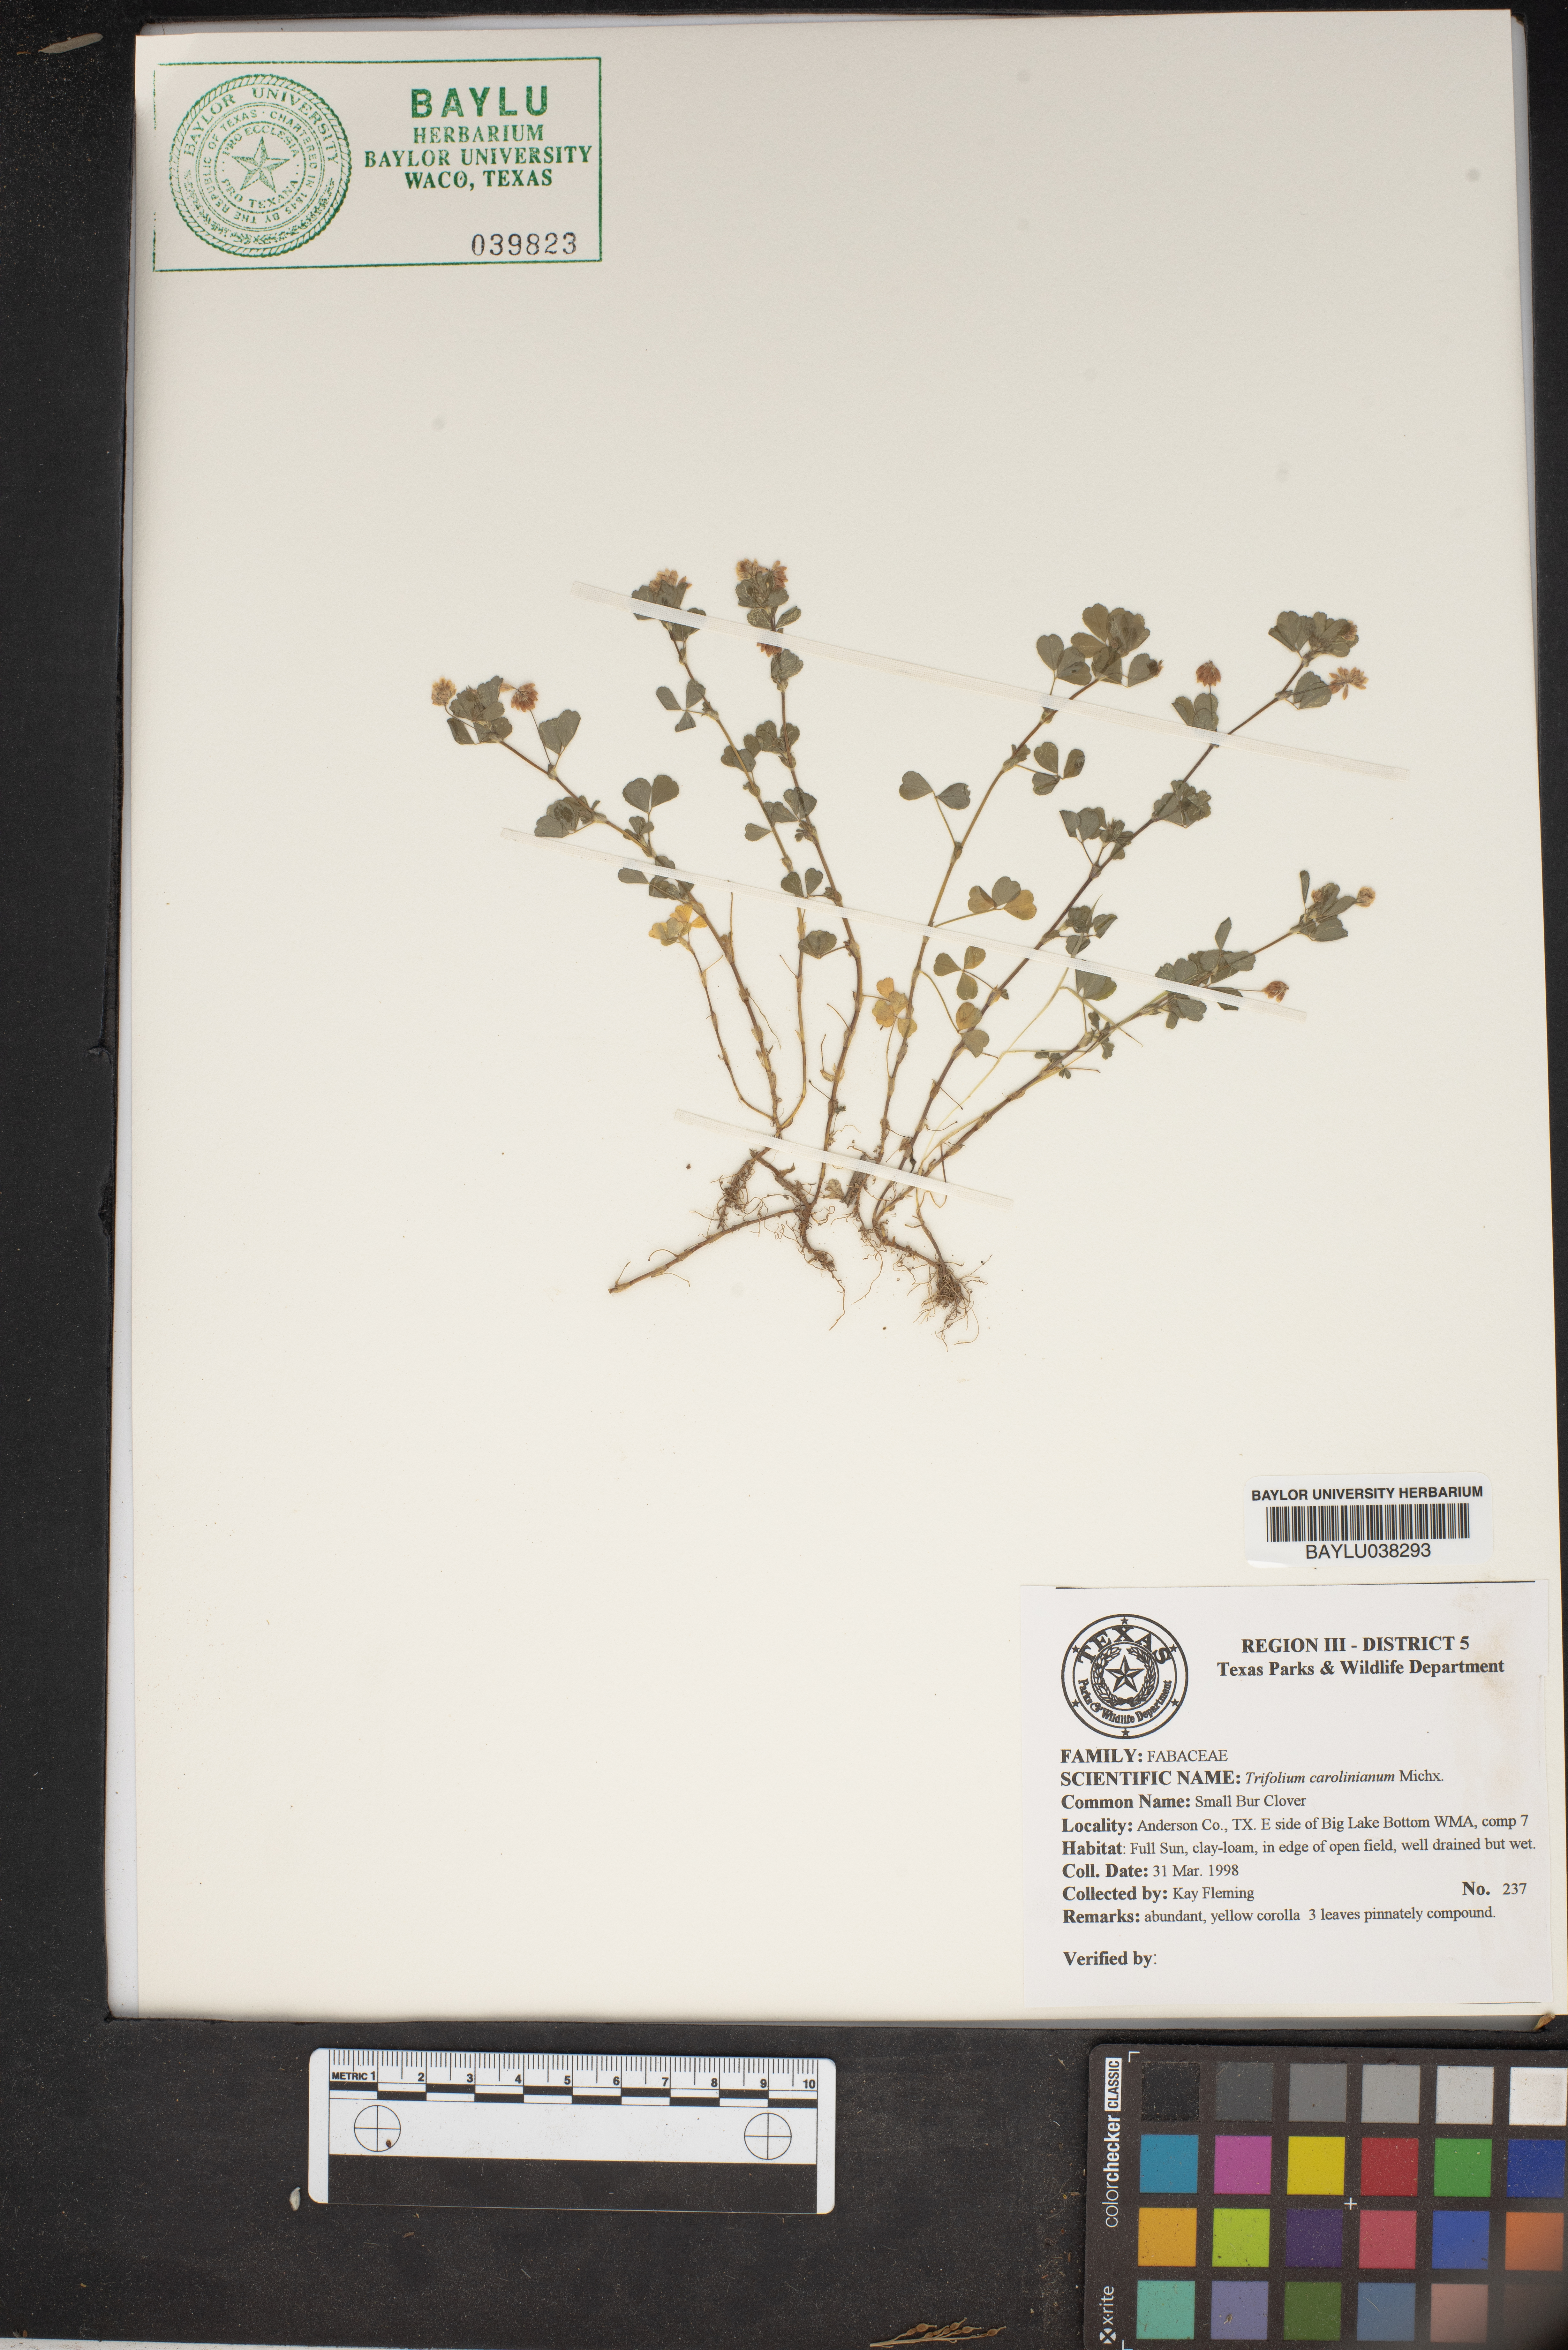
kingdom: Plantae
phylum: Tracheophyta
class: Magnoliopsida
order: Fabales
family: Fabaceae
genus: Trifolium
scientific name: Trifolium carolinianum
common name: Wild white clover
